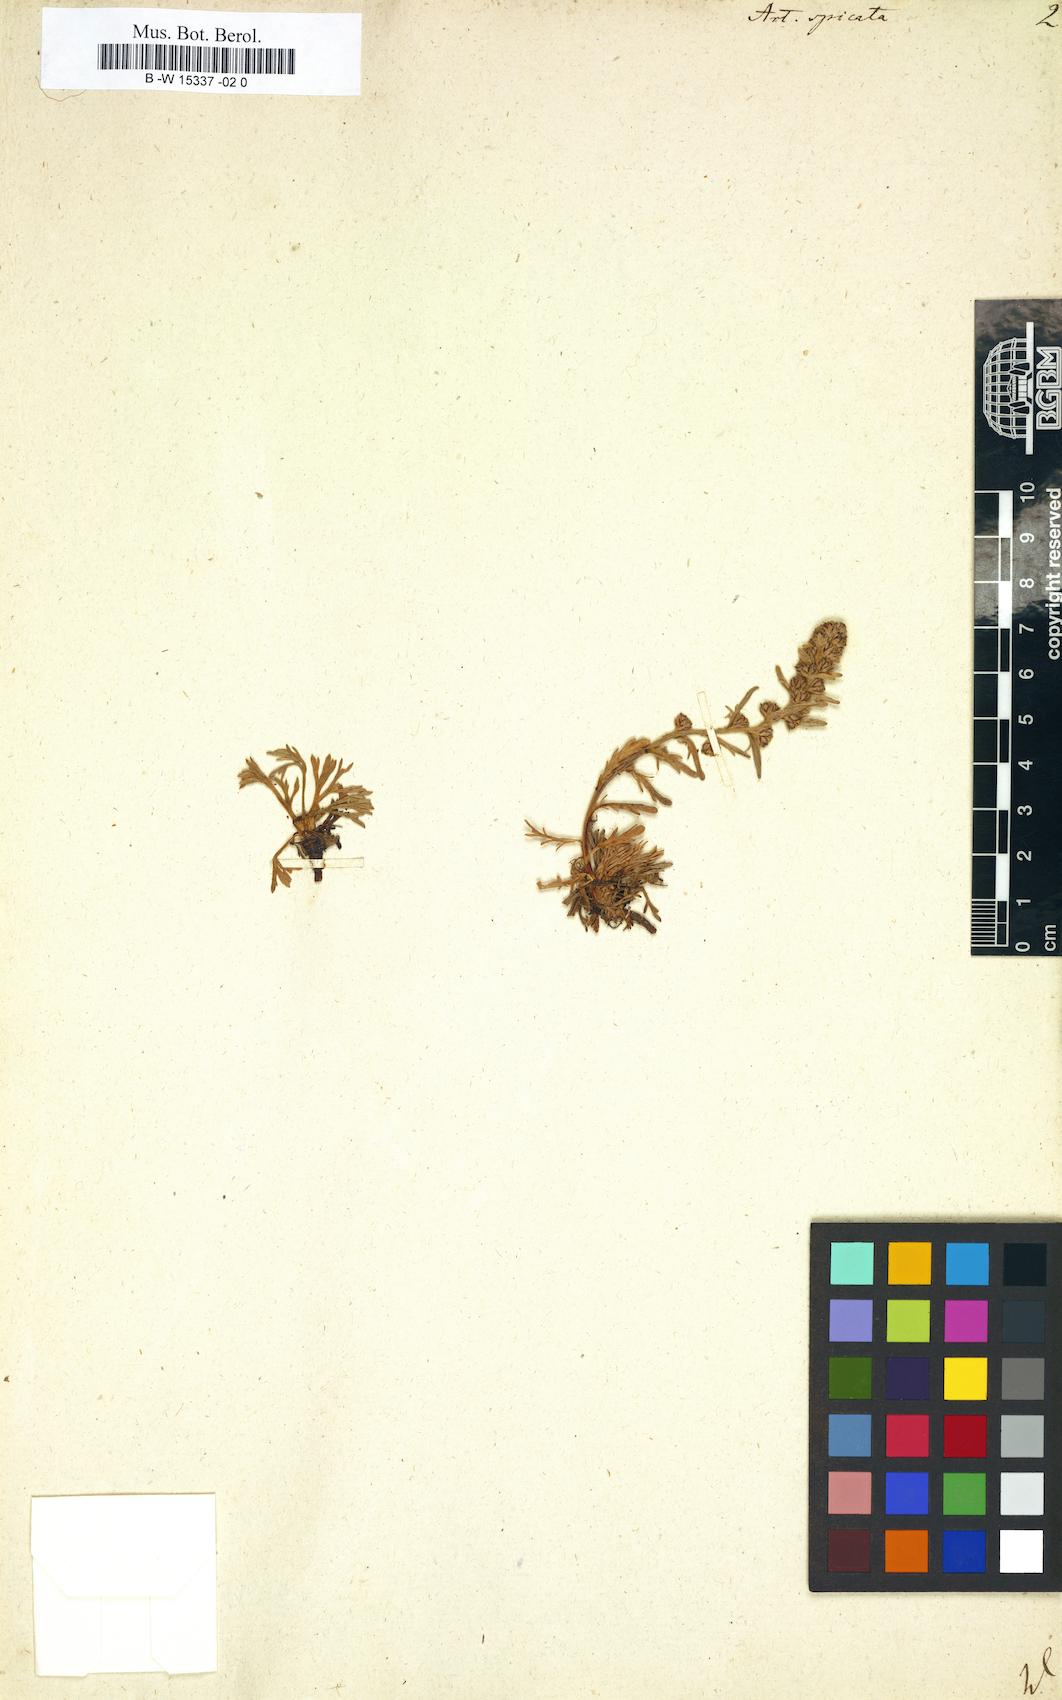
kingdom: Plantae
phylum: Tracheophyta
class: Magnoliopsida
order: Asterales
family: Asteraceae
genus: Artemisia
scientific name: Artemisia genipi
